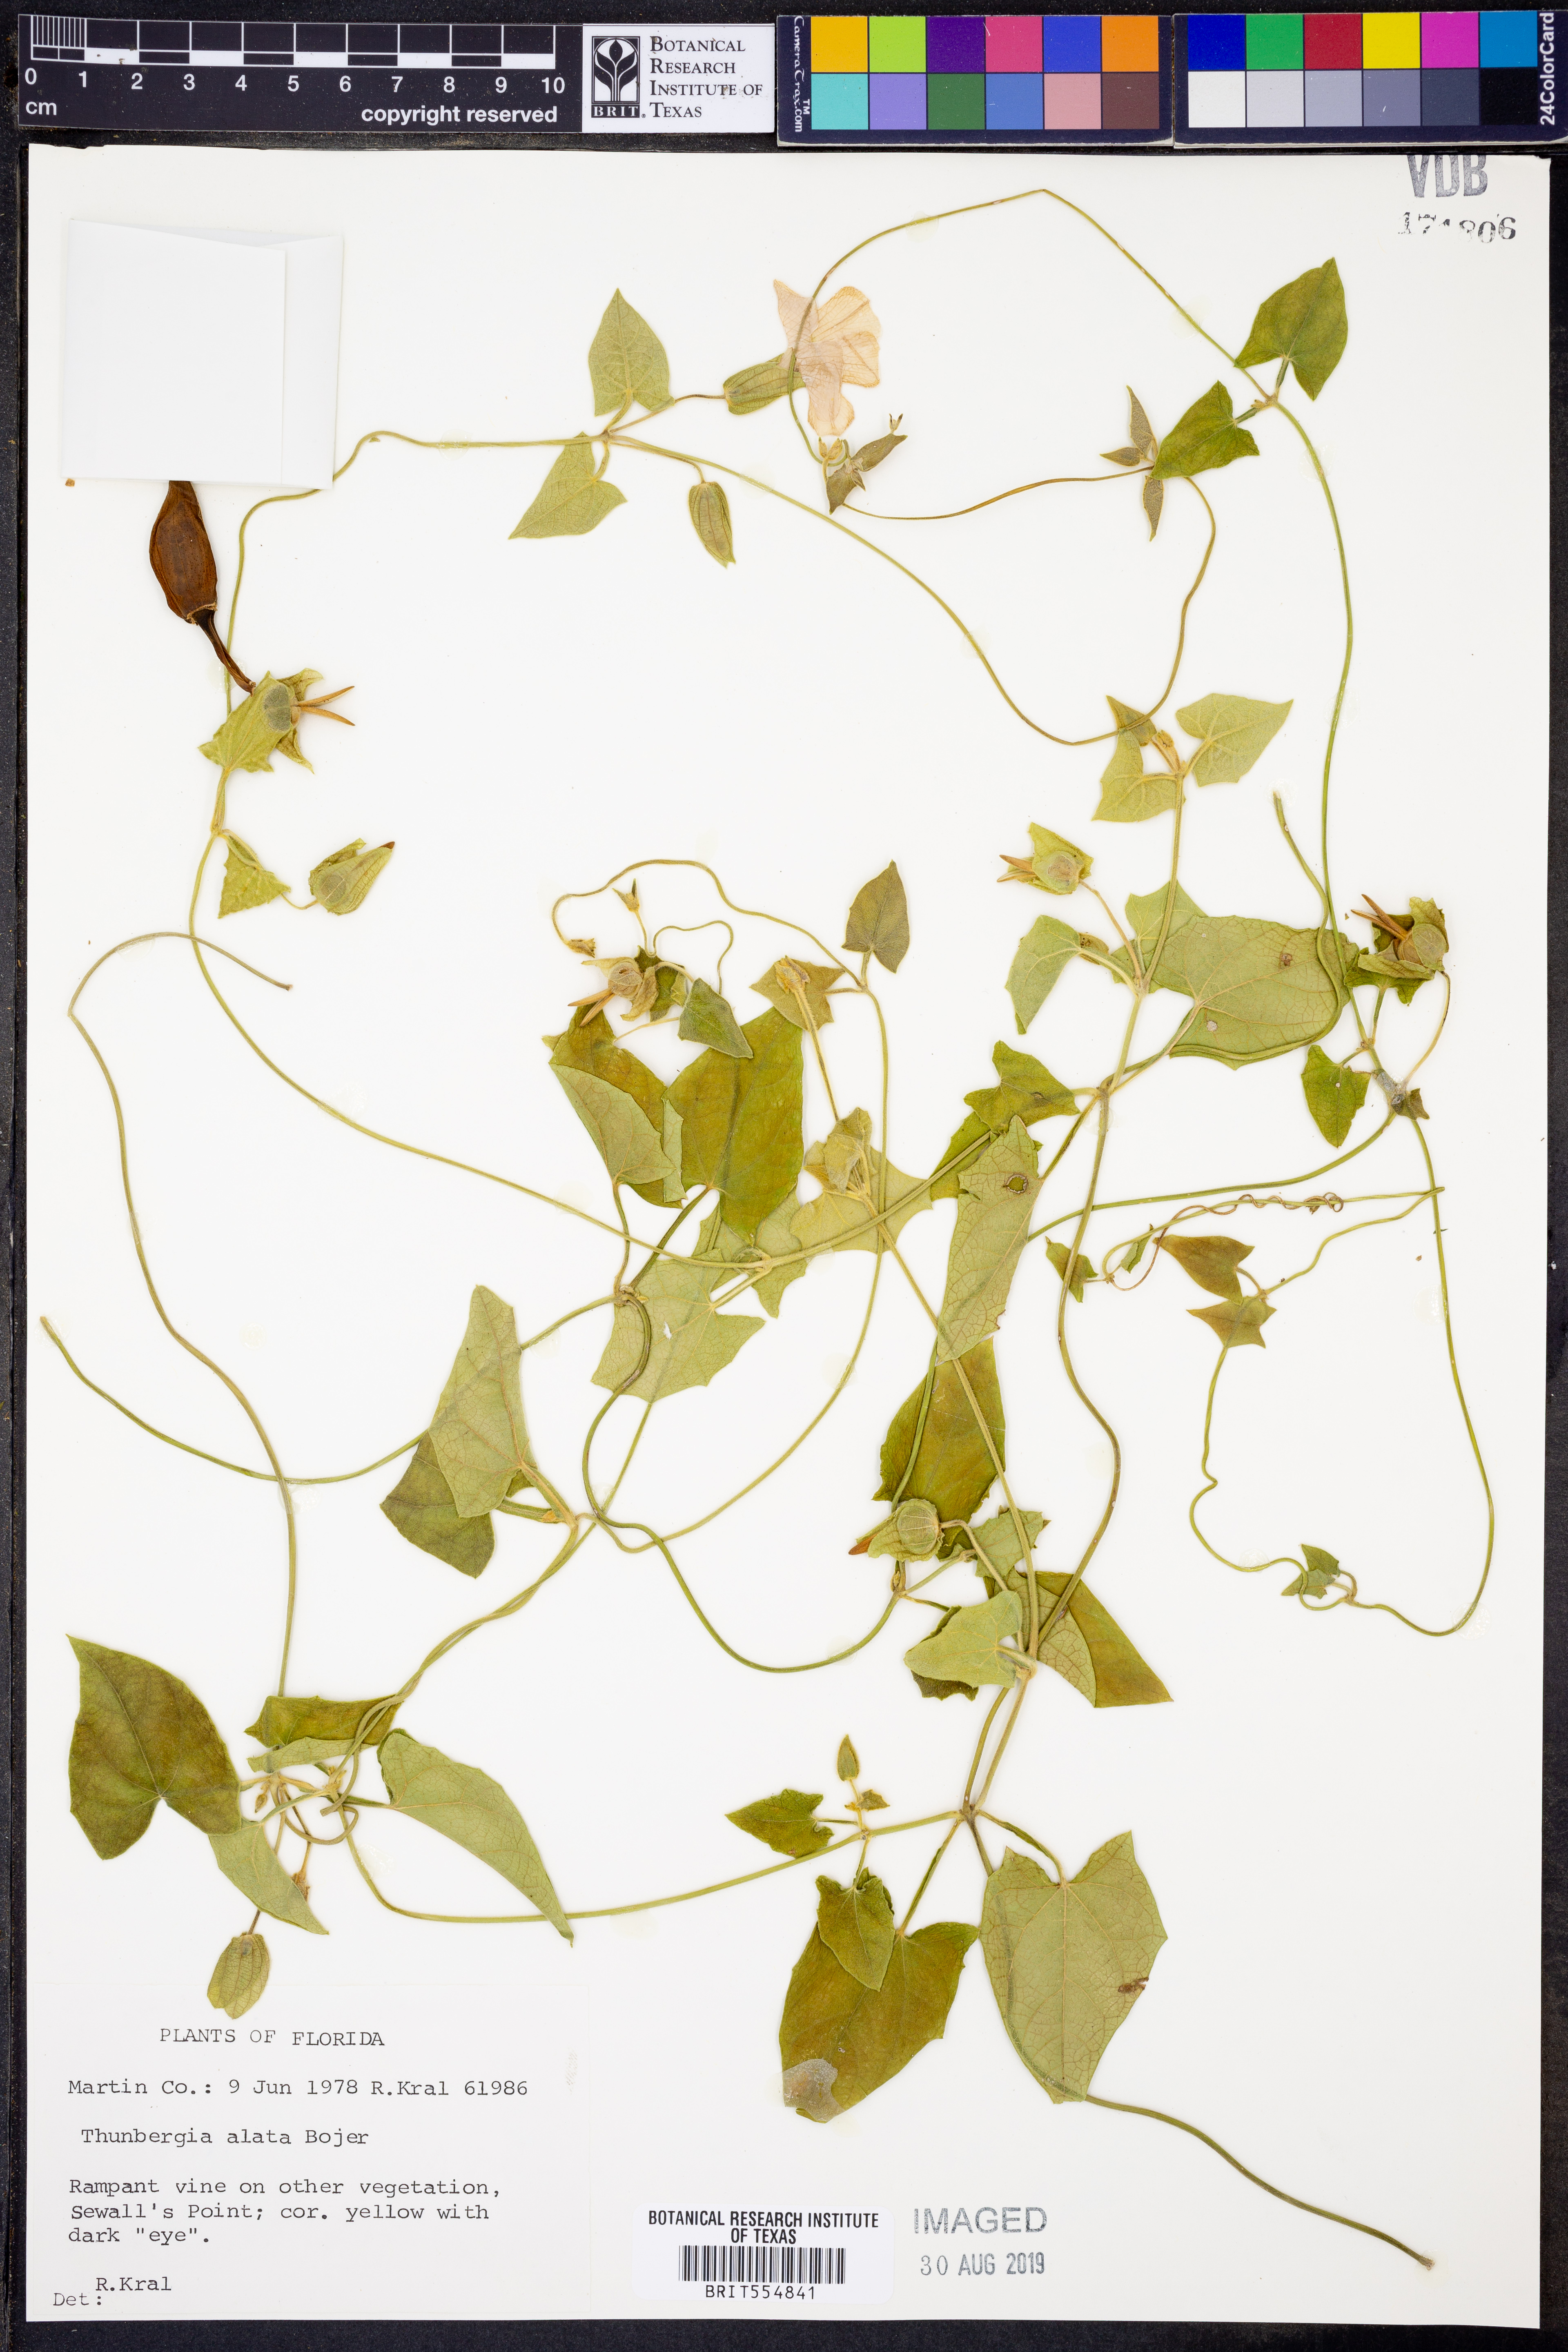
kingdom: Plantae
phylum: Tracheophyta
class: Magnoliopsida
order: Lamiales
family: Acanthaceae
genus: Thunbergia
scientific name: Thunbergia alata
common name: Blackeyed susan vine
